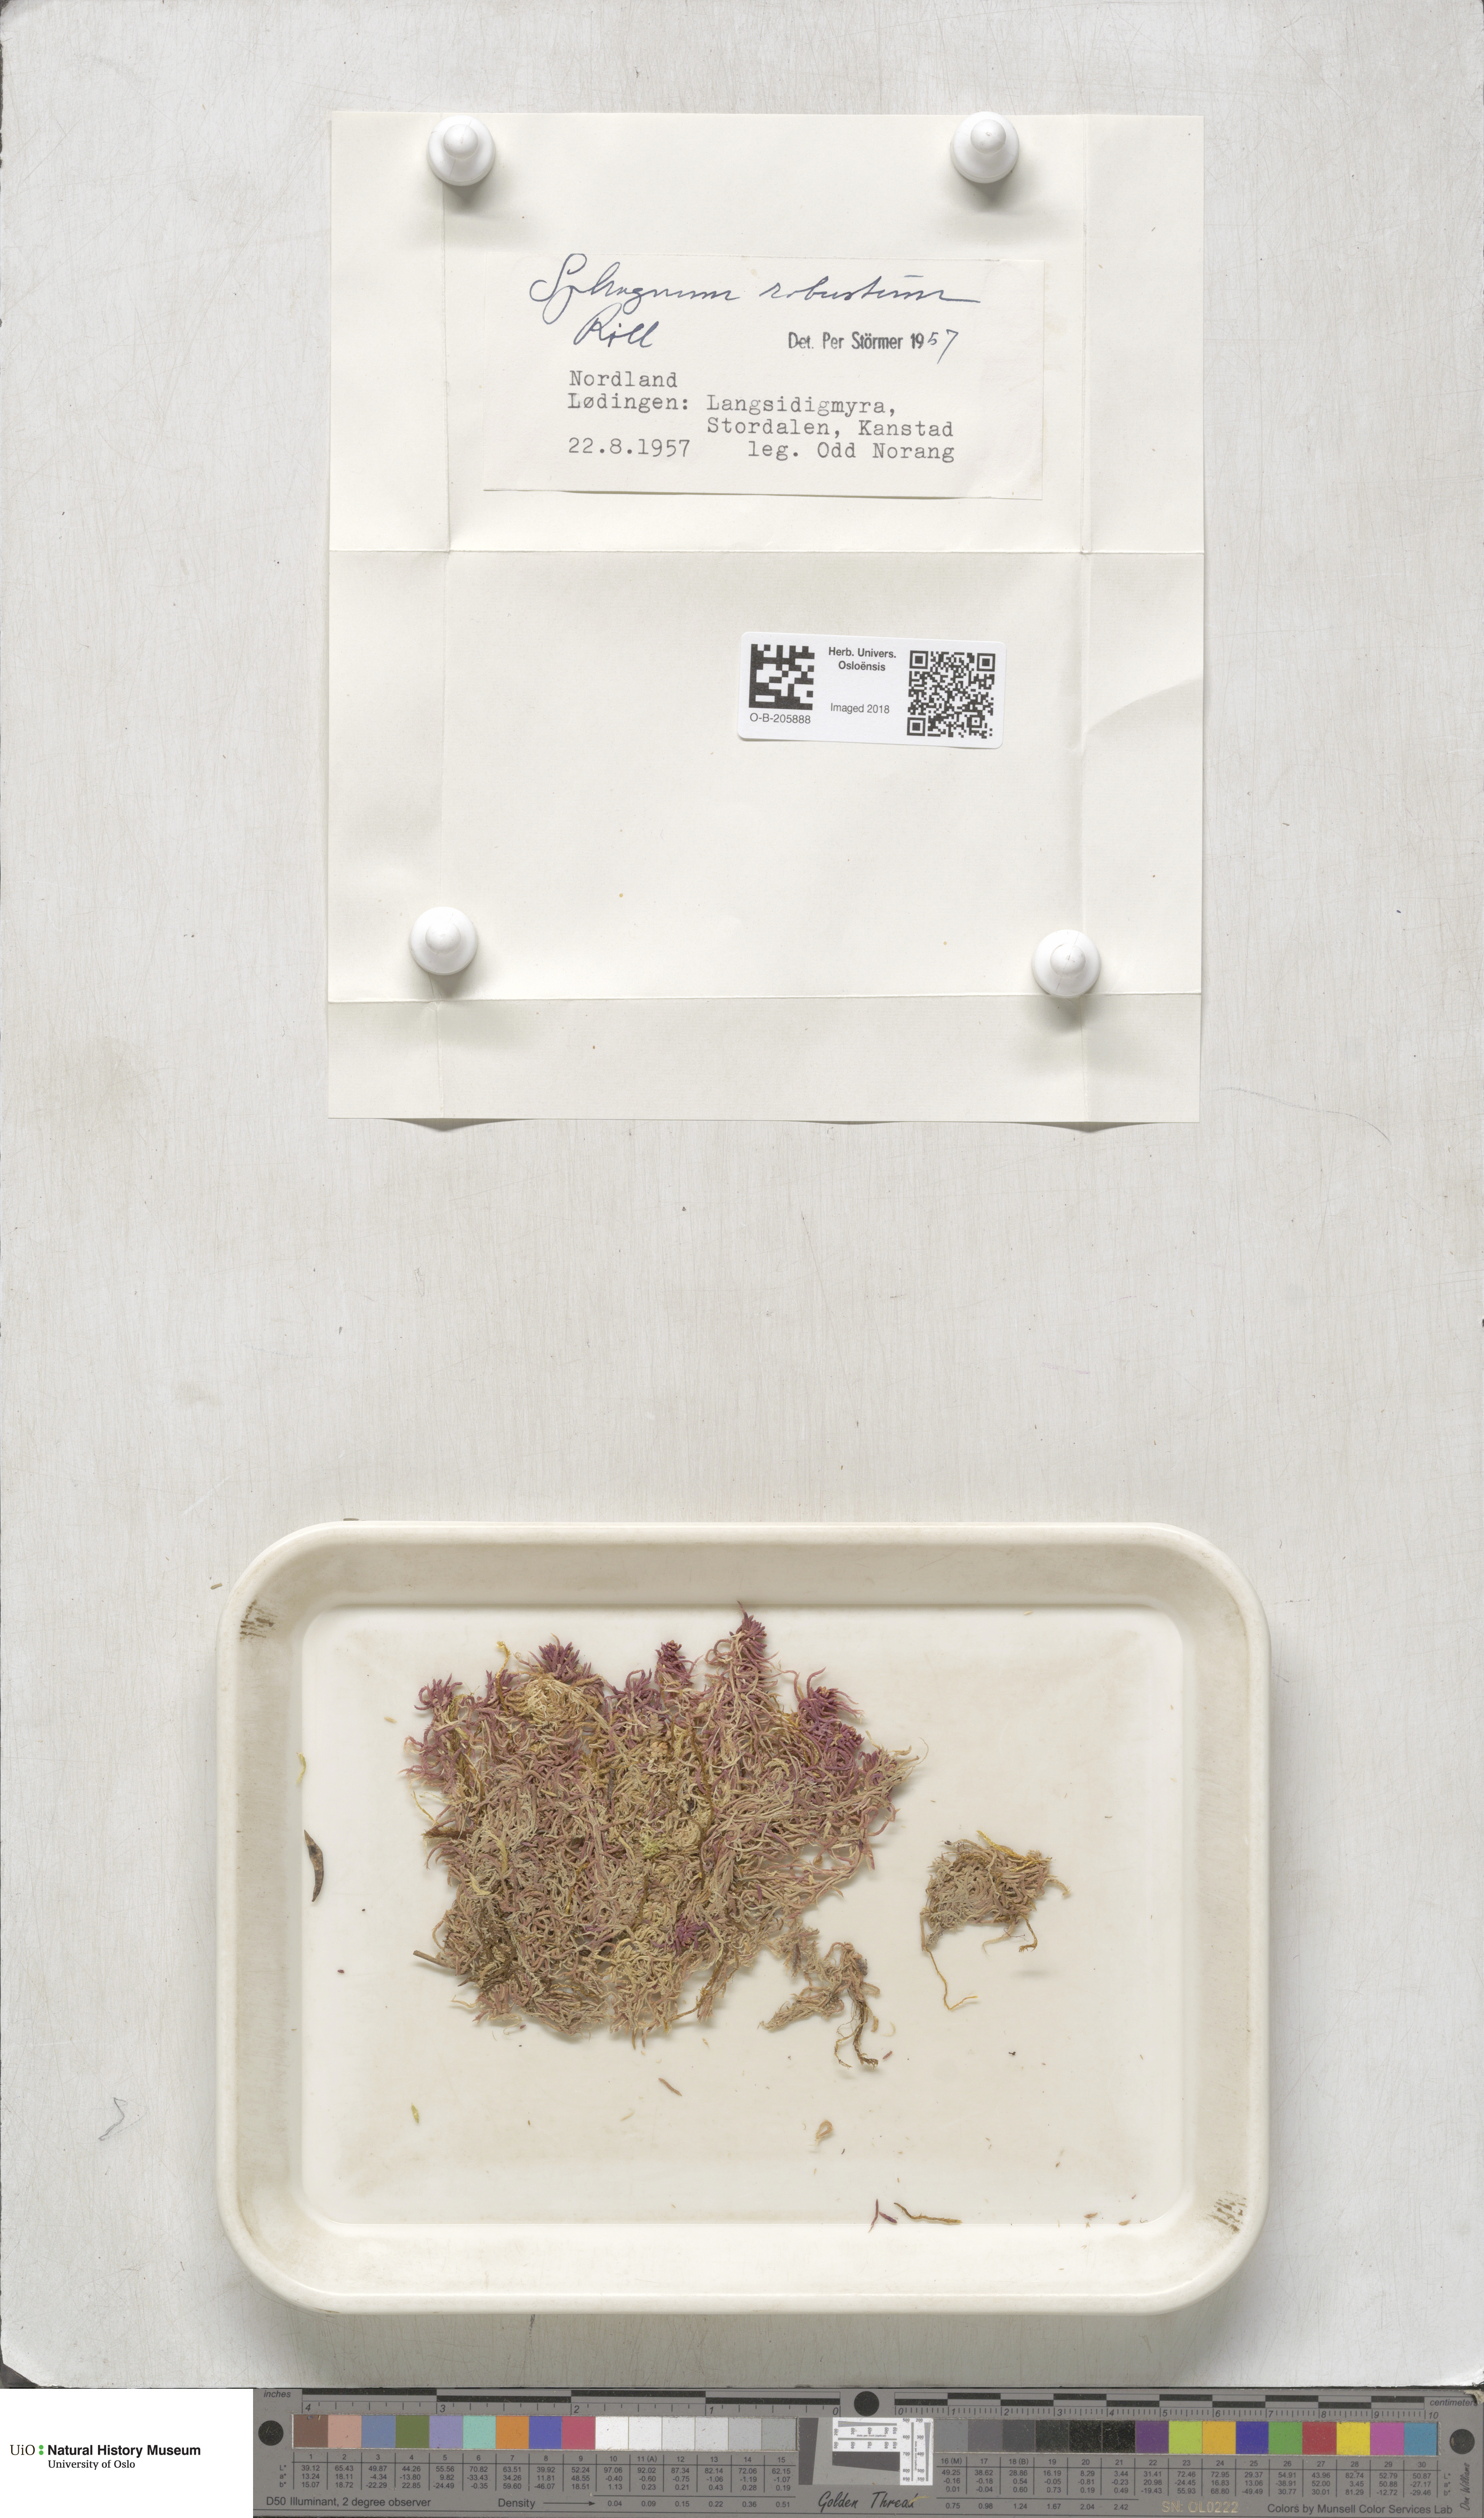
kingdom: Plantae
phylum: Bryophyta
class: Sphagnopsida
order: Sphagnales
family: Sphagnaceae
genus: Sphagnum
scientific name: Sphagnum russowii
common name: Russow's peat moss
